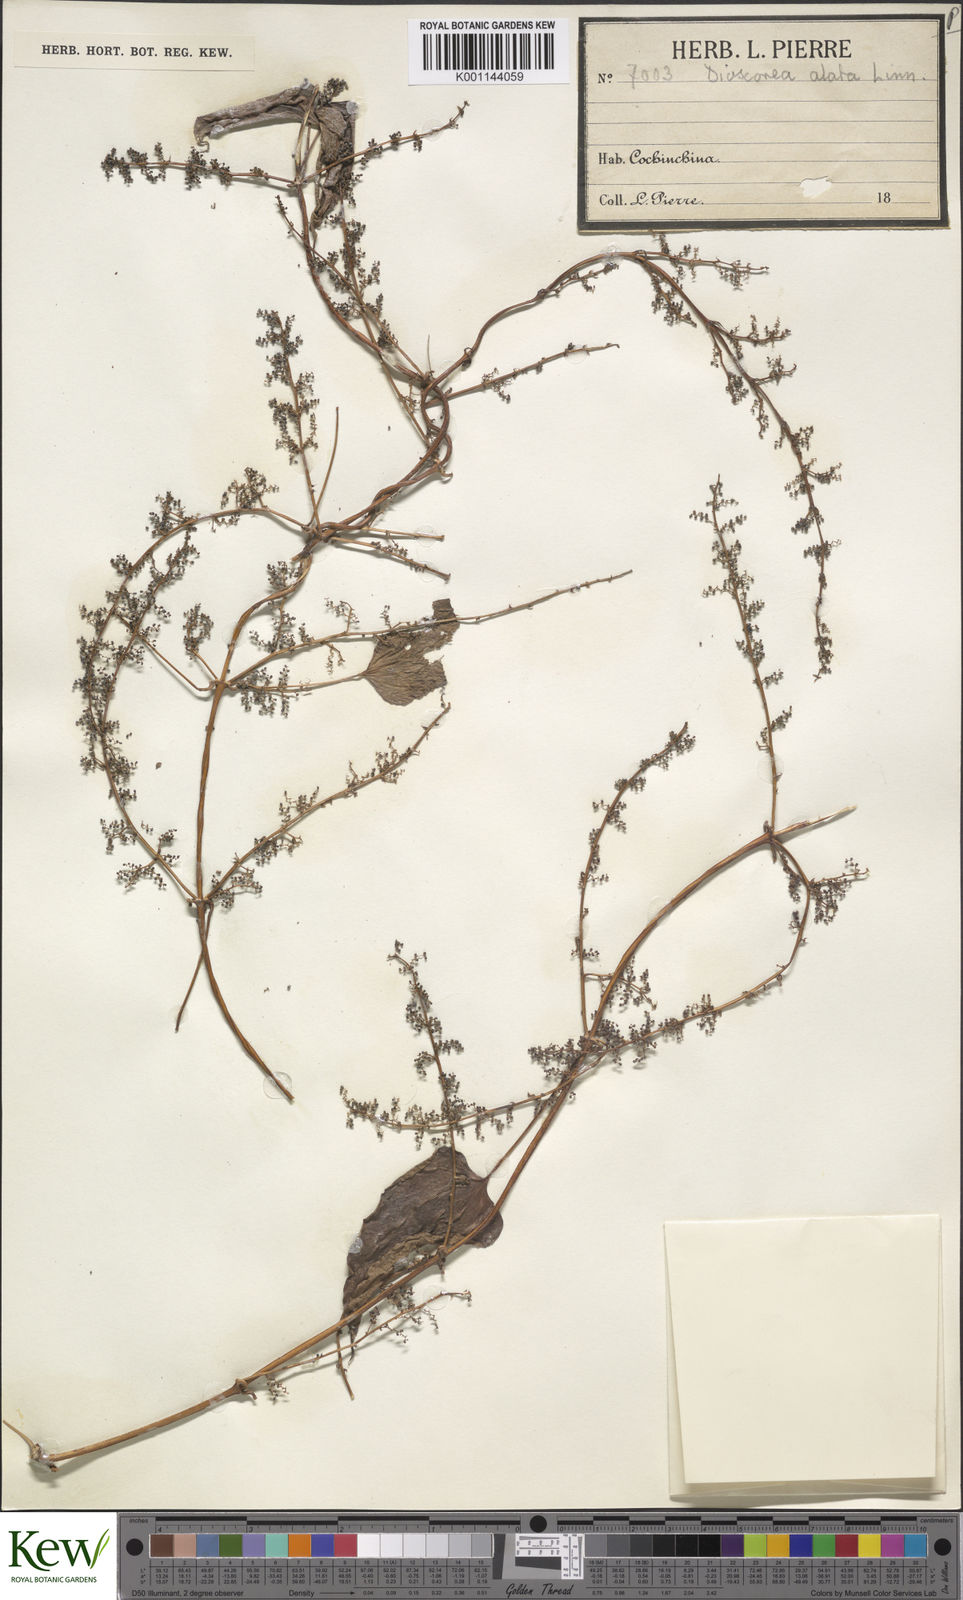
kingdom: Plantae
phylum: Tracheophyta
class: Liliopsida
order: Dioscoreales
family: Dioscoreaceae
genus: Dioscorea
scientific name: Dioscorea alata
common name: Water yam
